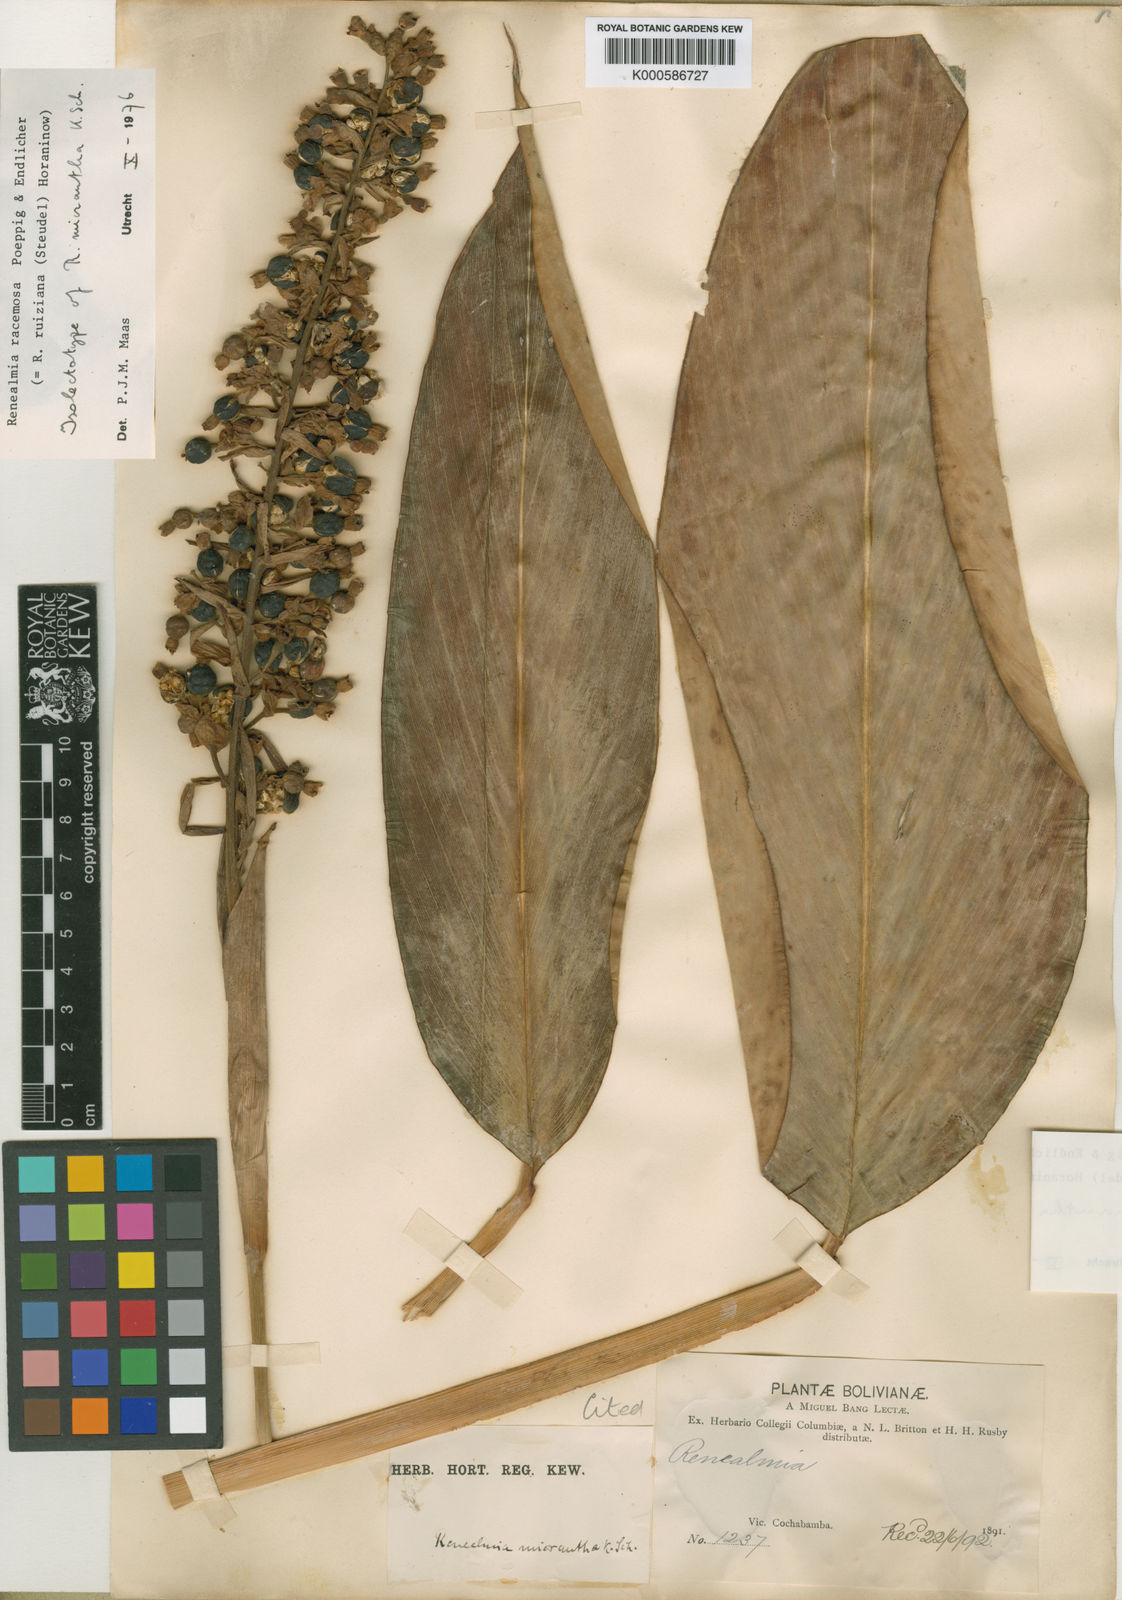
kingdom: Plantae
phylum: Tracheophyta
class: Liliopsida
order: Zingiberales
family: Zingiberaceae
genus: Renealmia
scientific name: Renealmia racemosa
